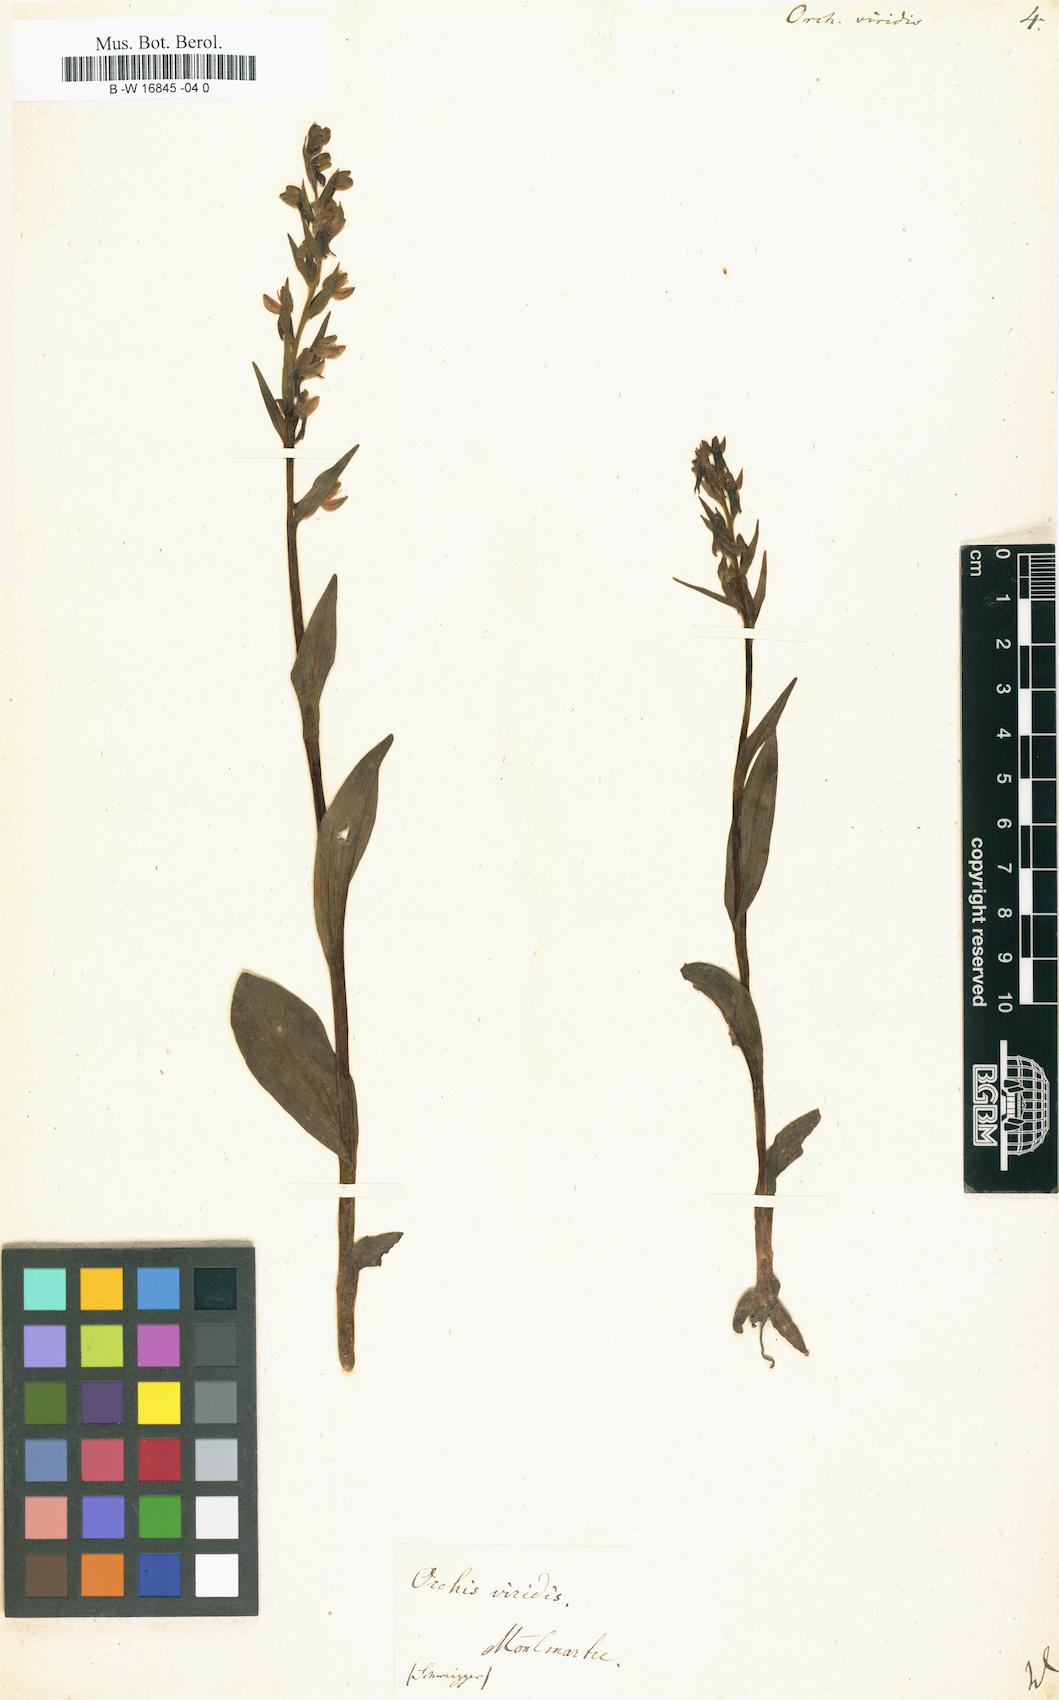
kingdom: Plantae
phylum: Tracheophyta
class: Liliopsida
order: Asparagales
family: Orchidaceae
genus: Dactylorhiza
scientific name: Dactylorhiza viridis
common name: Longbract frog orchid
